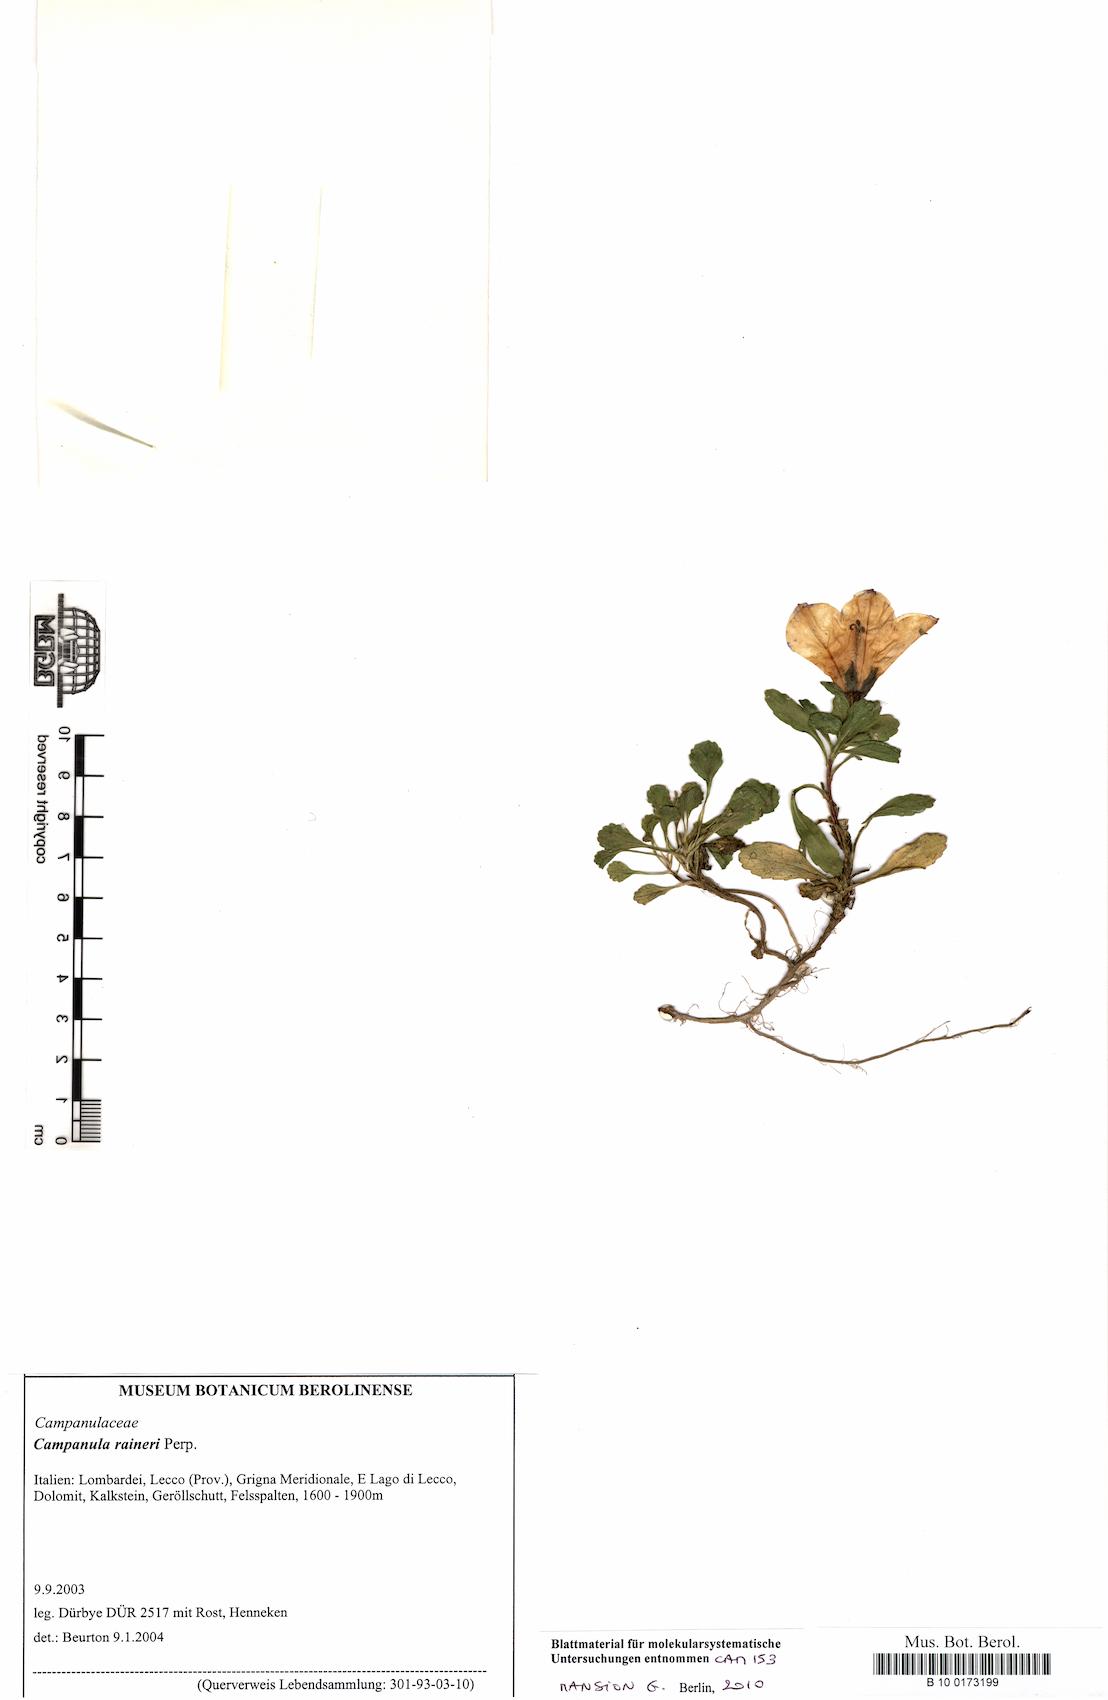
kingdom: Plantae
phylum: Tracheophyta
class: Magnoliopsida
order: Asterales
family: Campanulaceae
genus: Campanula
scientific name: Campanula raineri
